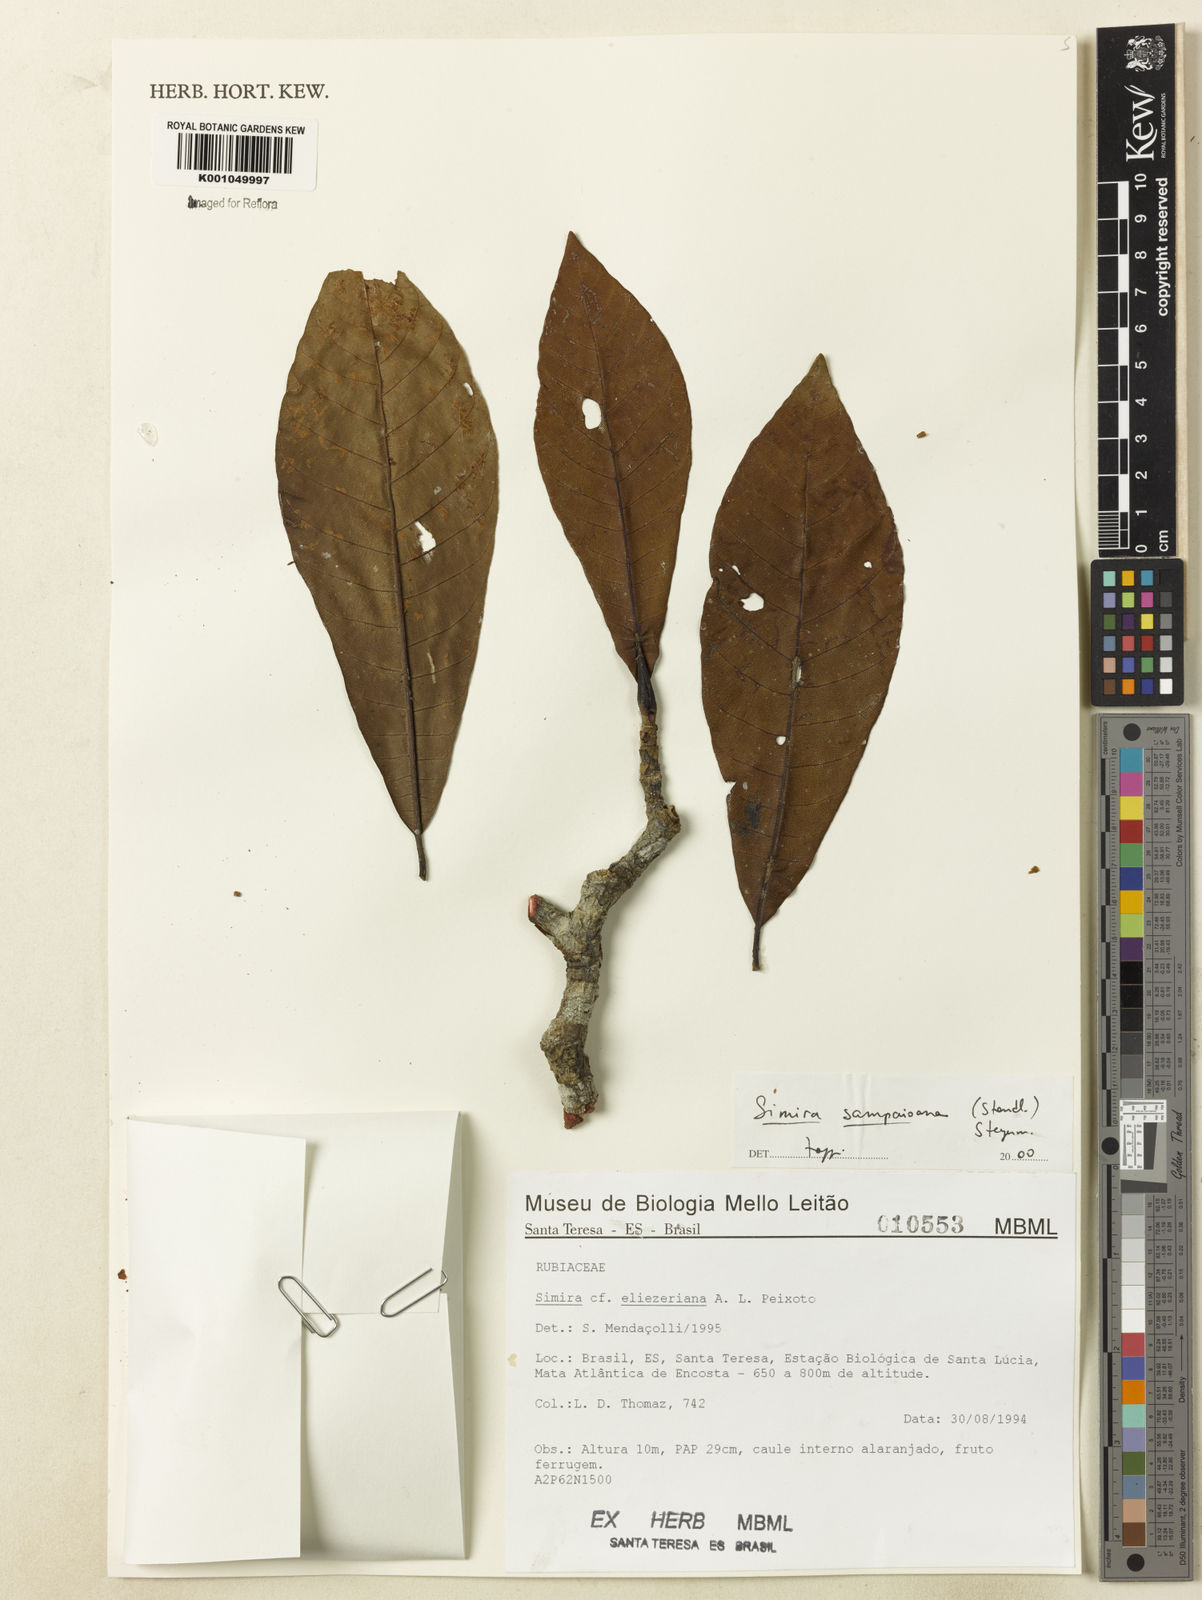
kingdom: Plantae
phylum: Tracheophyta
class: Magnoliopsida
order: Gentianales
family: Rubiaceae
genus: Simira
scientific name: Simira sampaioana
